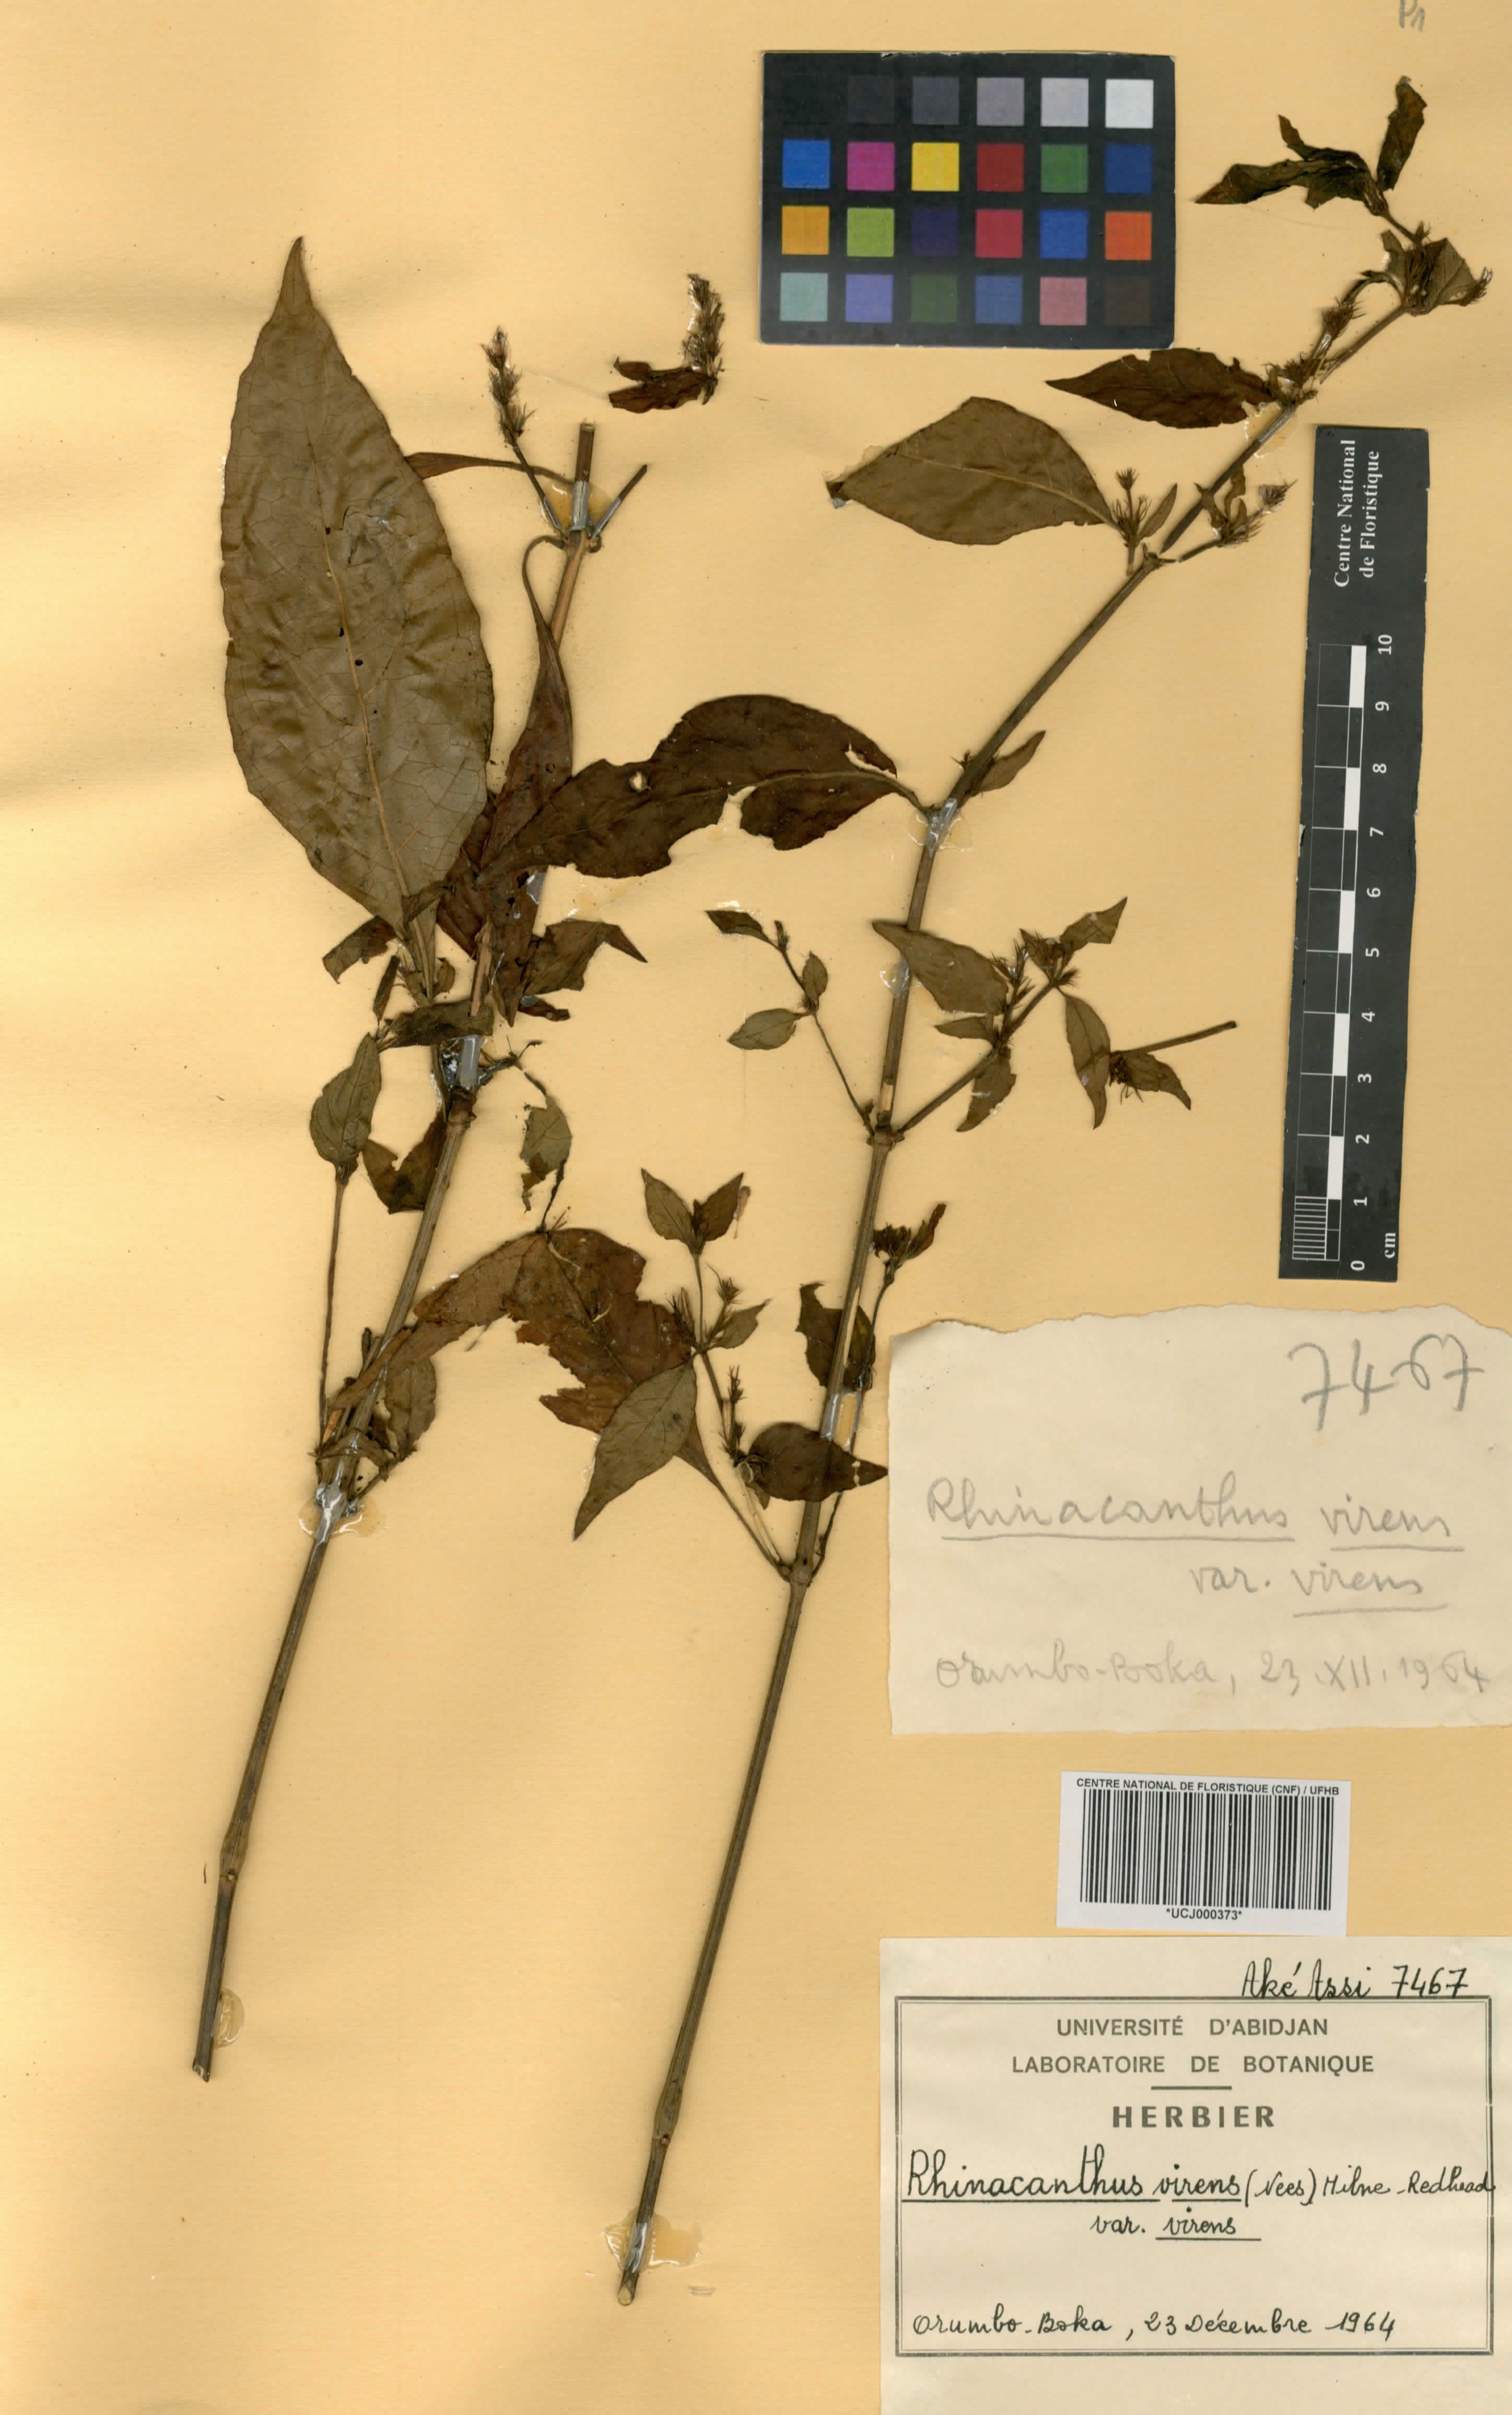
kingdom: Plantae
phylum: Tracheophyta
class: Magnoliopsida
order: Lamiales
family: Acanthaceae
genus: Rhinacanthus
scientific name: Rhinacanthus virens
